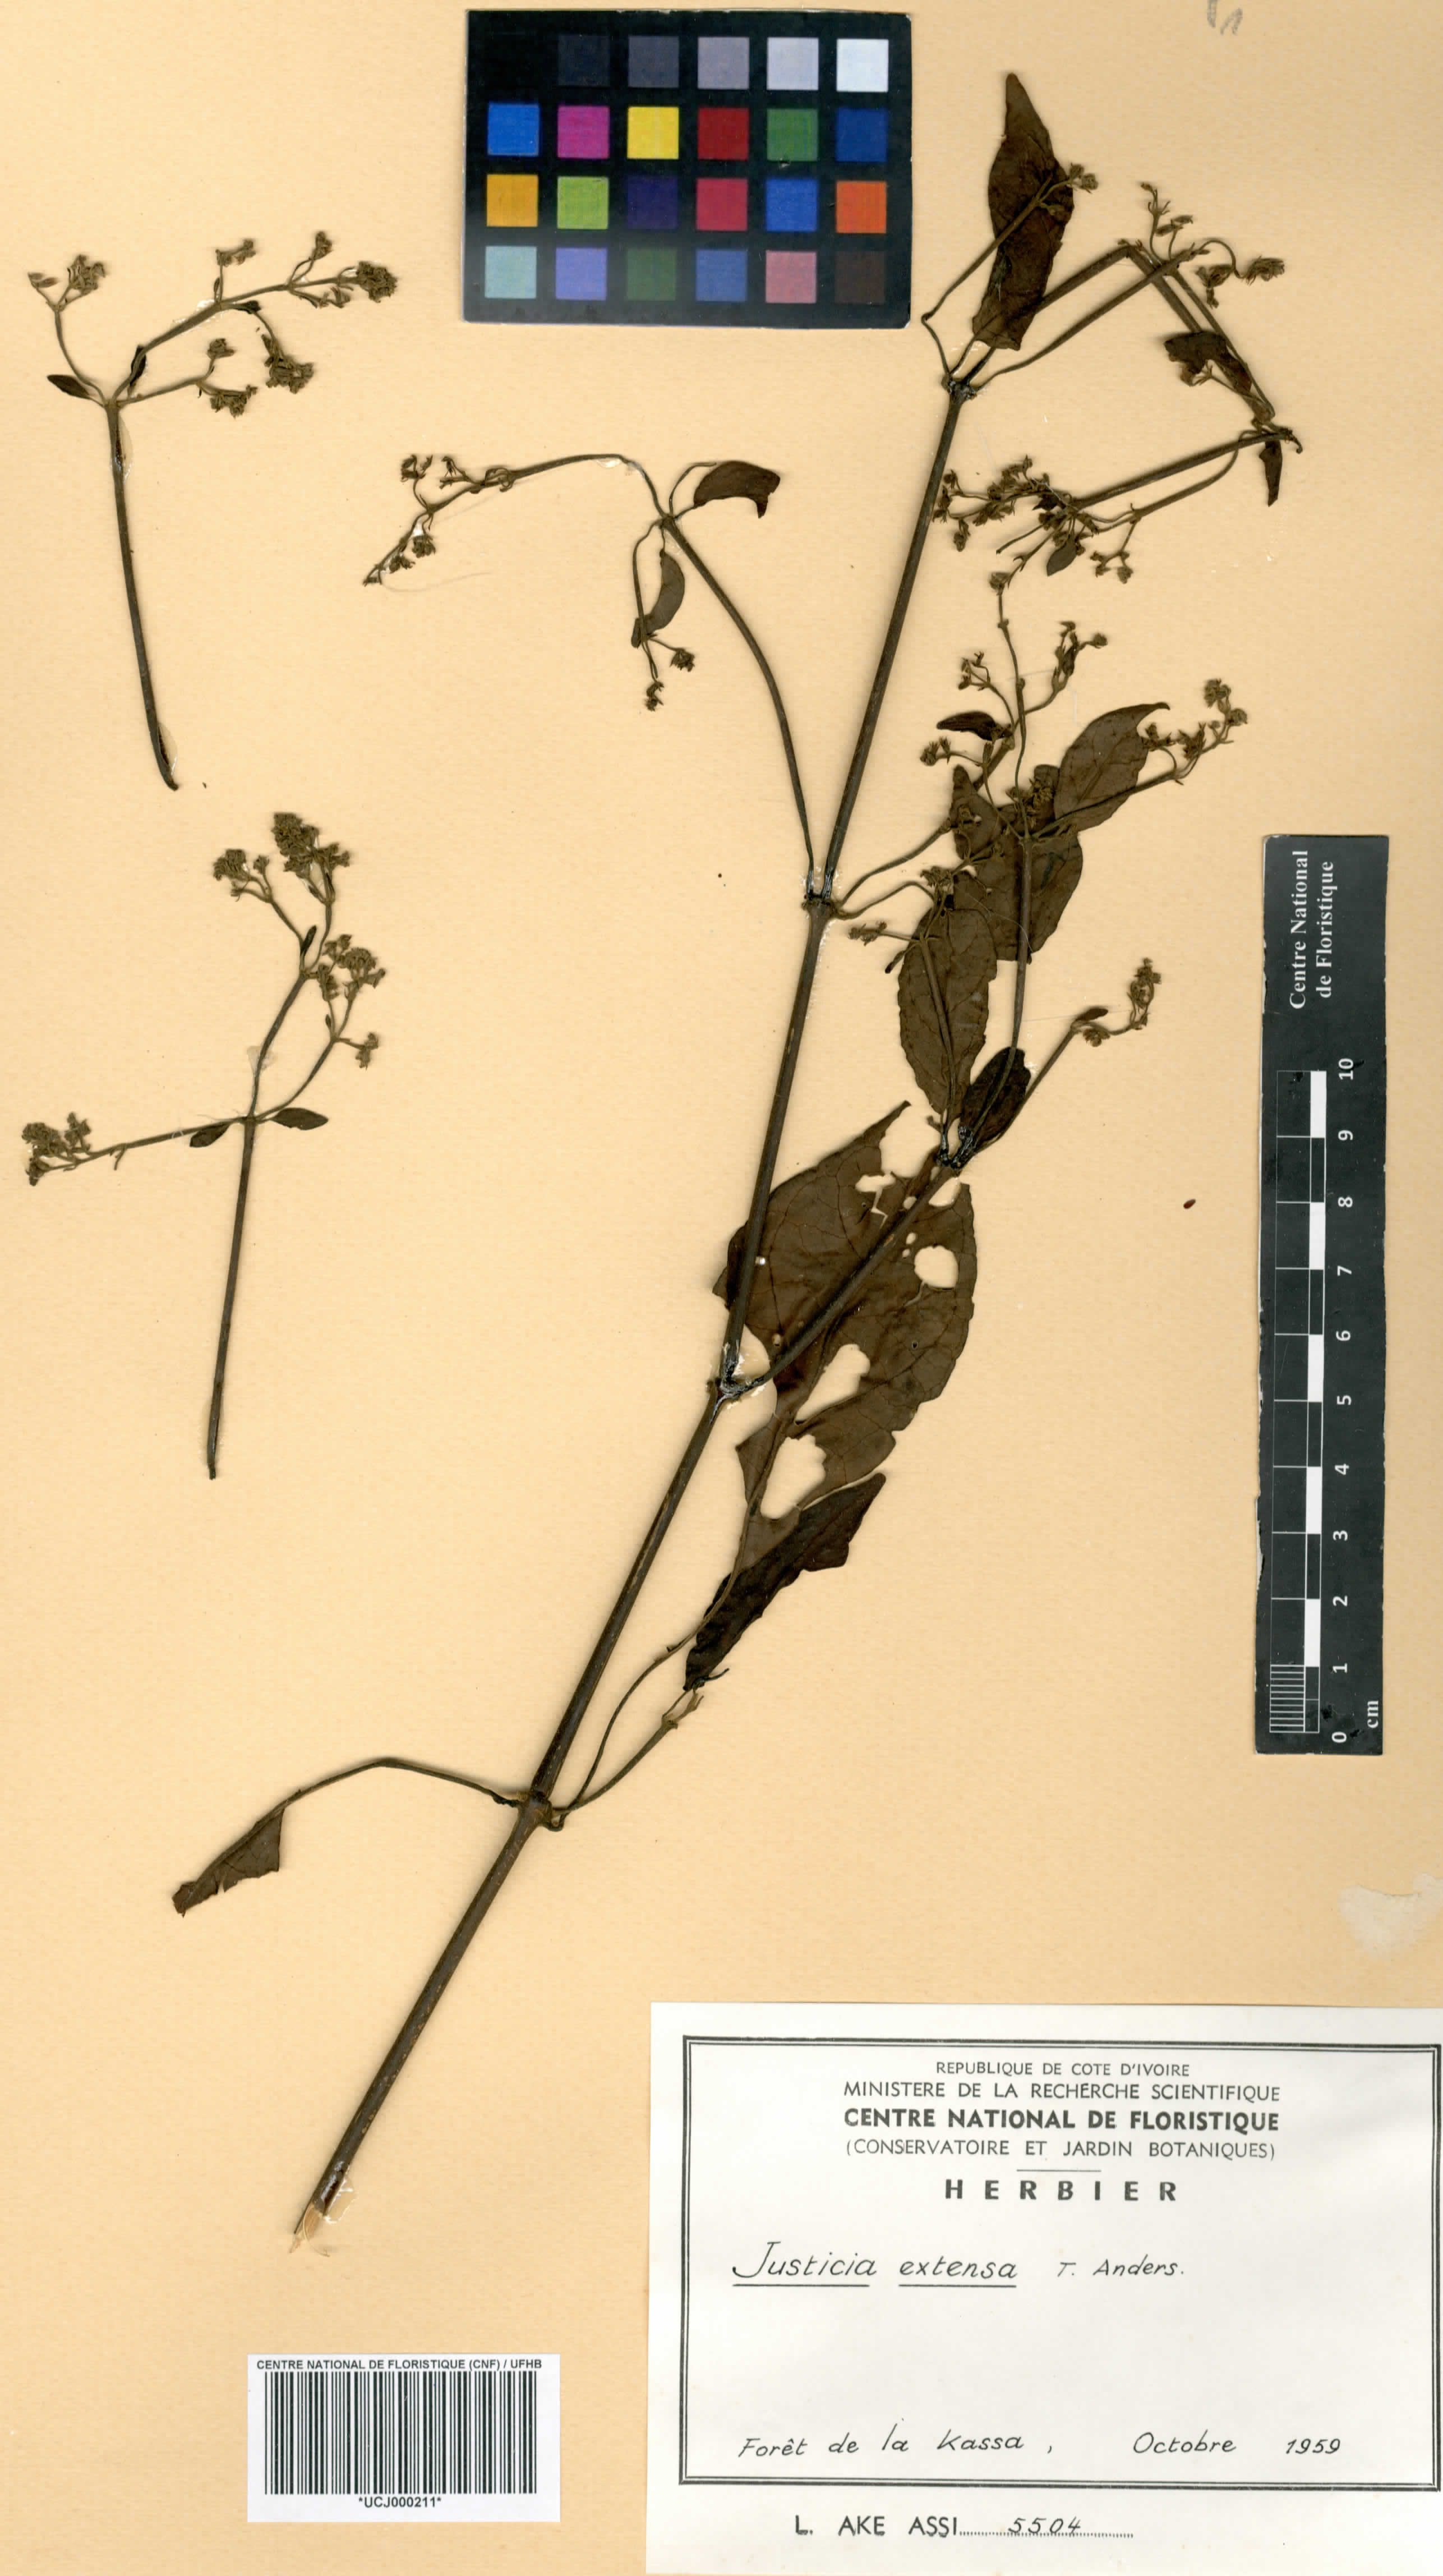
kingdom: Plantae
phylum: Tracheophyta
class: Magnoliopsida
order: Lamiales
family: Acanthaceae
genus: Justicia
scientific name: Justicia extensa
